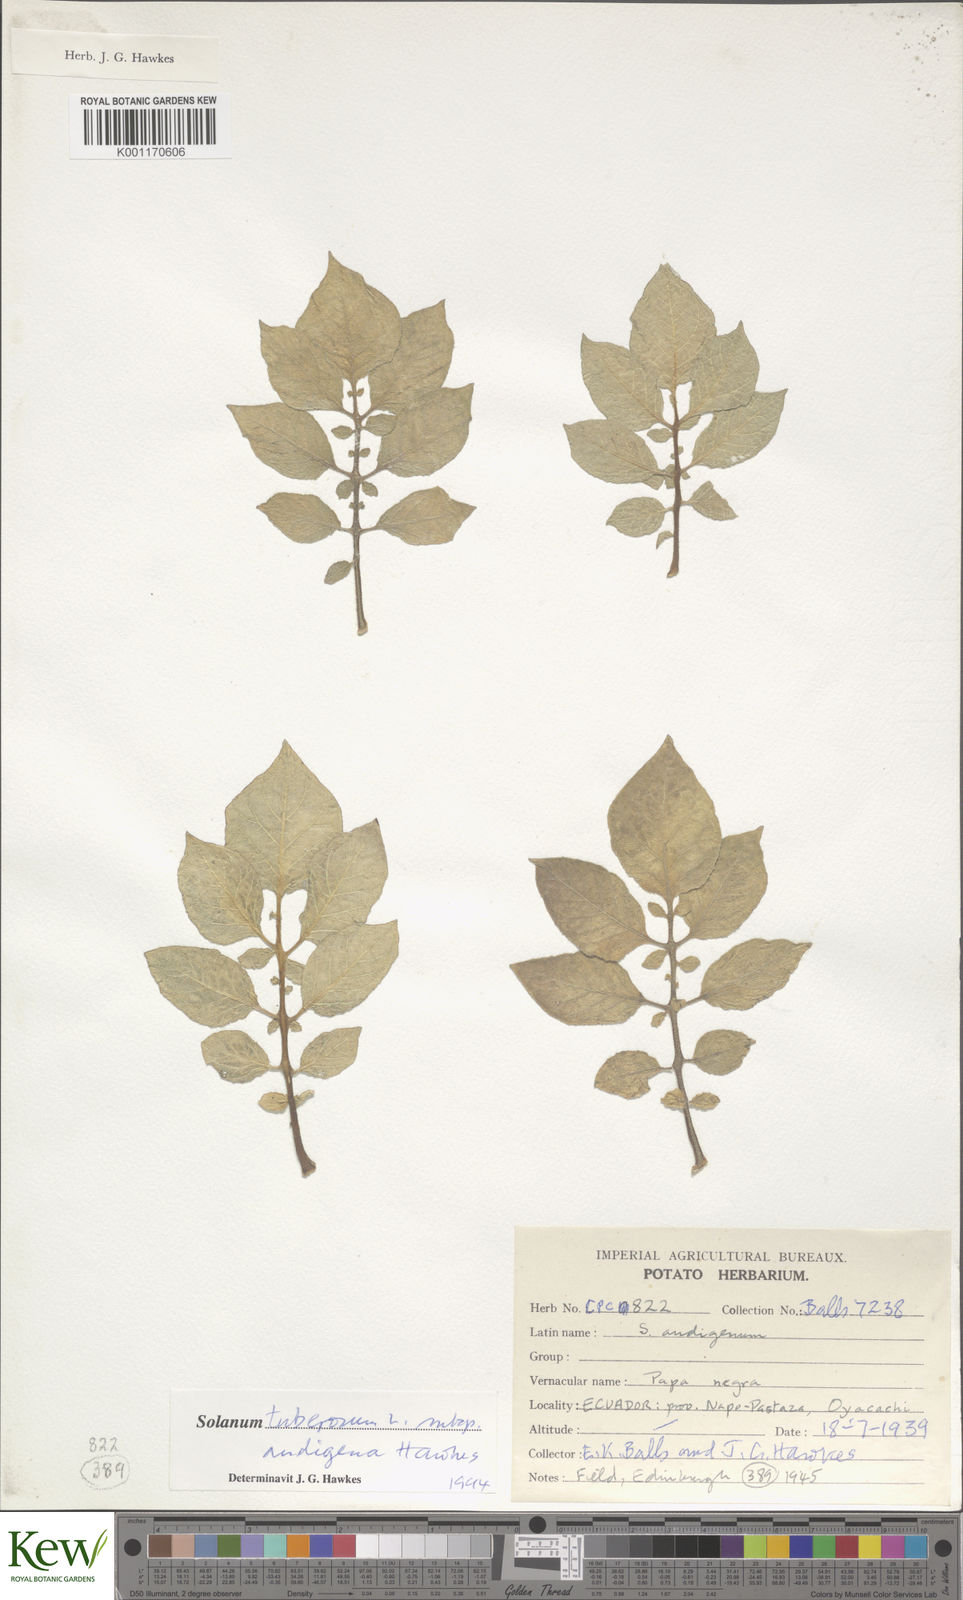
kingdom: Plantae
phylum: Tracheophyta
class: Magnoliopsida
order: Solanales
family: Solanaceae
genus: Solanum
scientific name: Solanum tuberosum
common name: Potato
